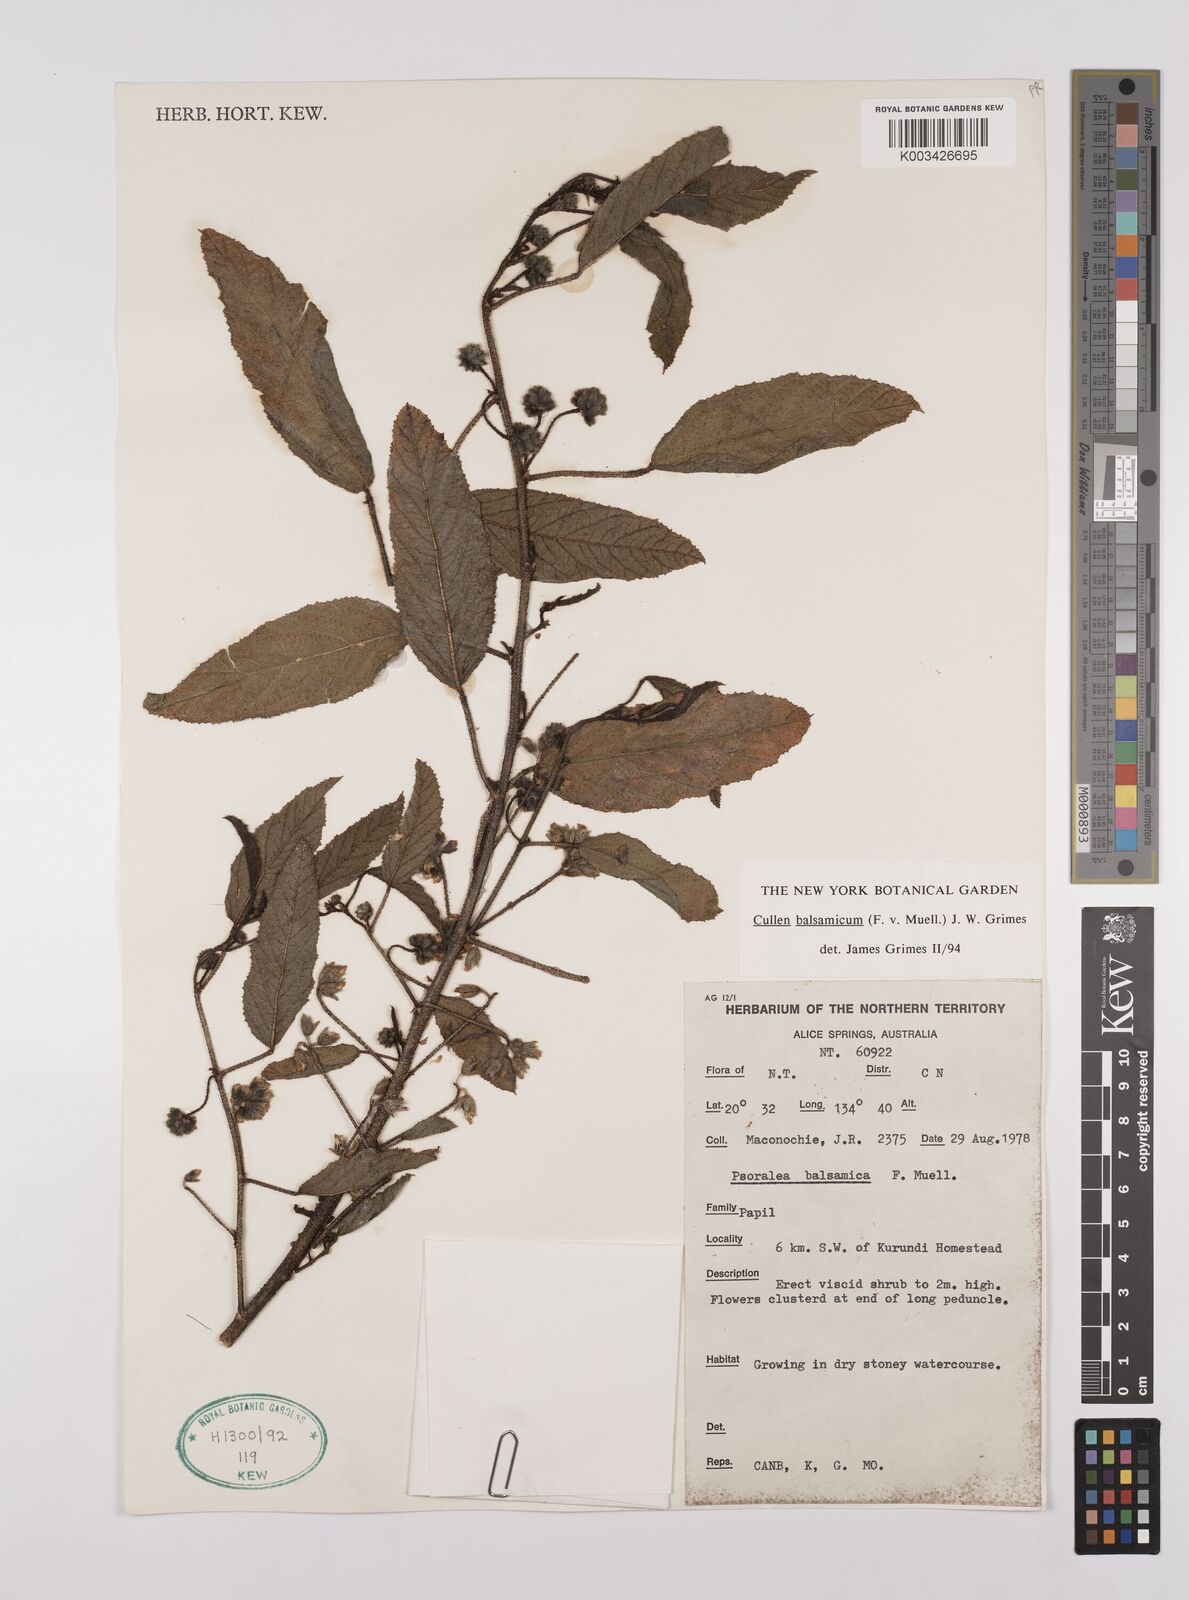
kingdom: Plantae
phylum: Tracheophyta
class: Magnoliopsida
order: Fabales
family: Fabaceae
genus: Cullen
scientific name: Cullen balsamicum
